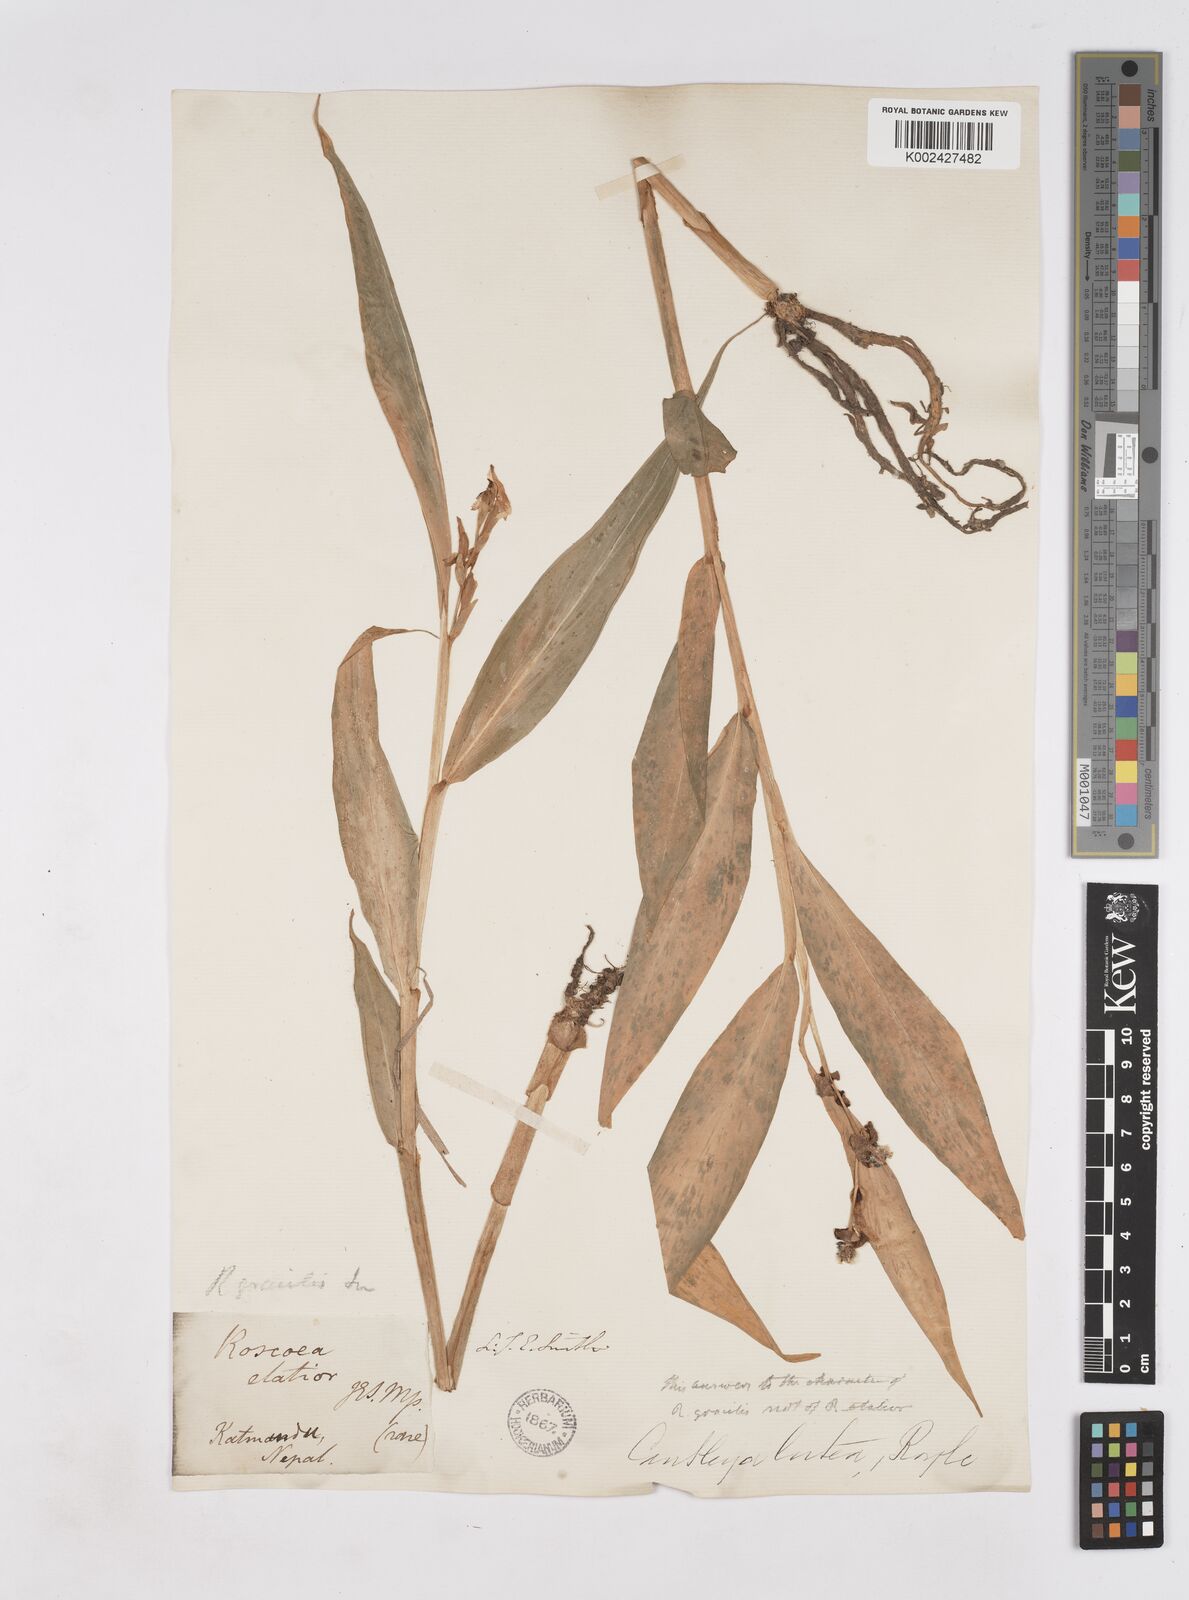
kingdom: Plantae
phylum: Tracheophyta
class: Liliopsida
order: Zingiberales
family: Zingiberaceae
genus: Cautleya
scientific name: Cautleya gracilis
